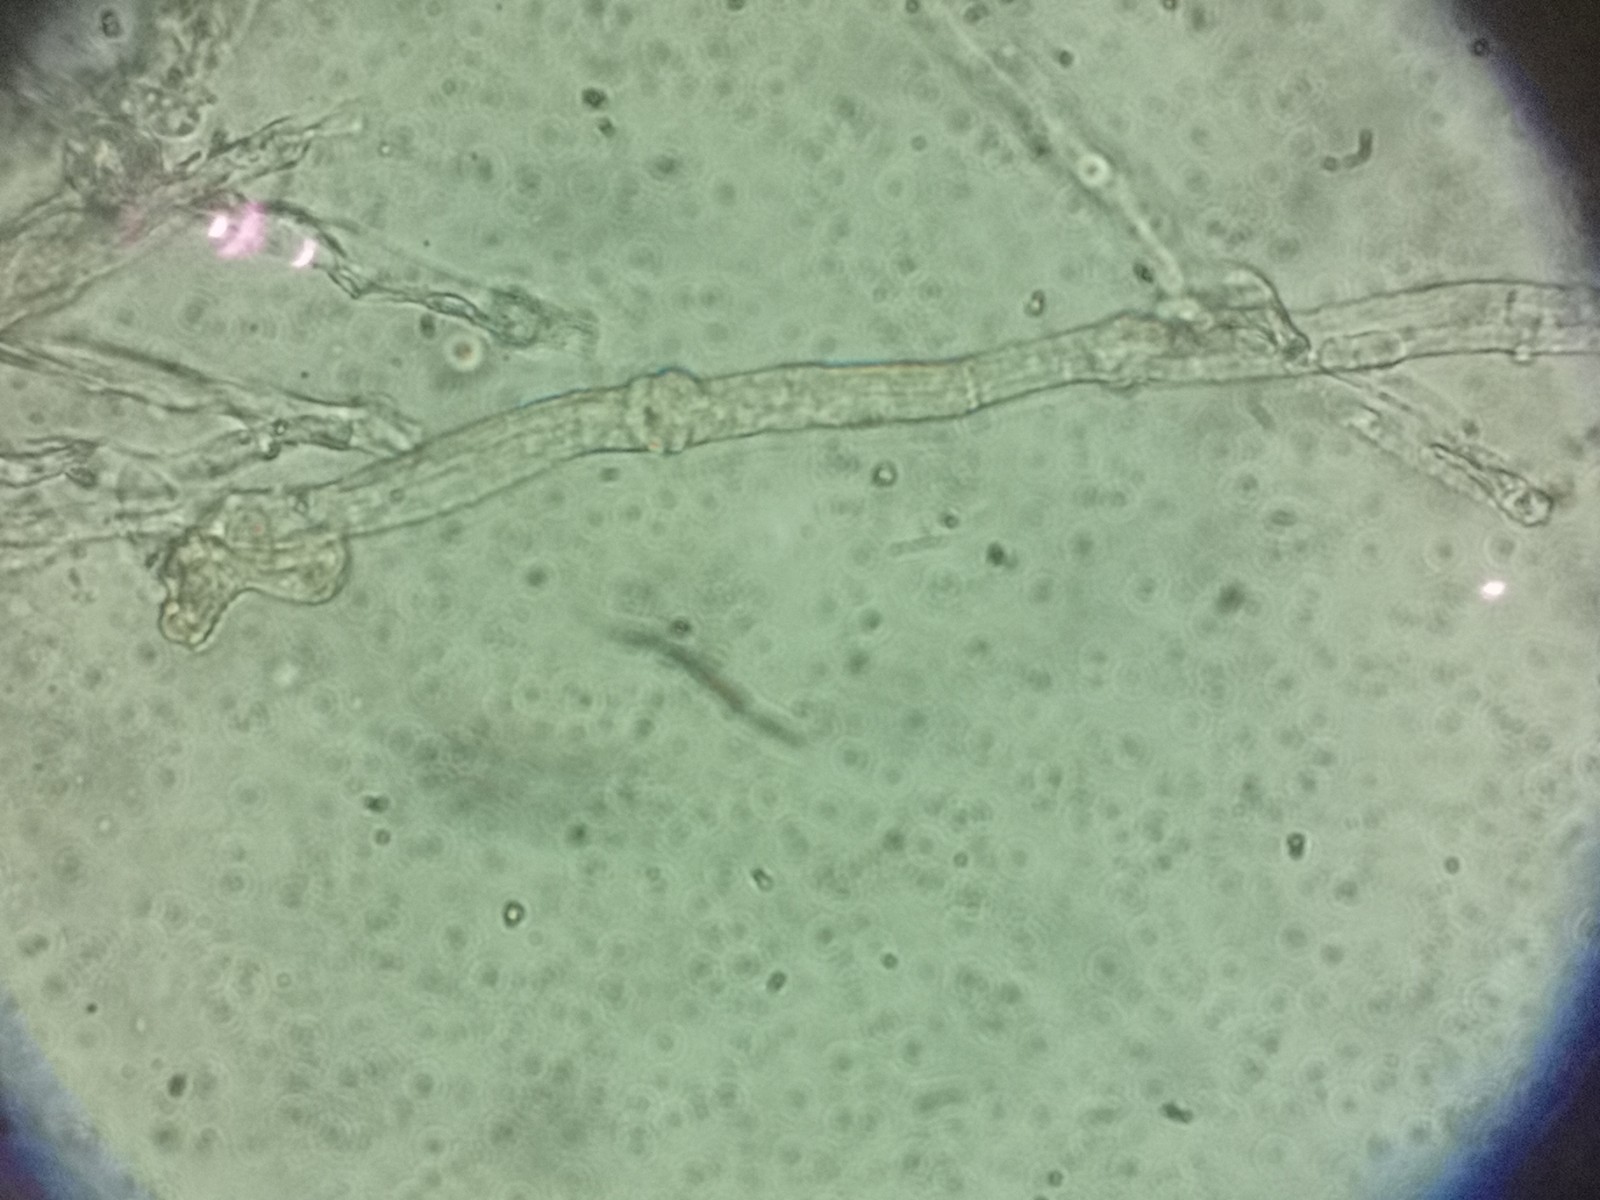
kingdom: Fungi
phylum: Ascomycota
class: Leotiomycetes
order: Helotiales
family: Erysiphaceae
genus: Golovinomyces
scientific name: Golovinomyces sonchicola
